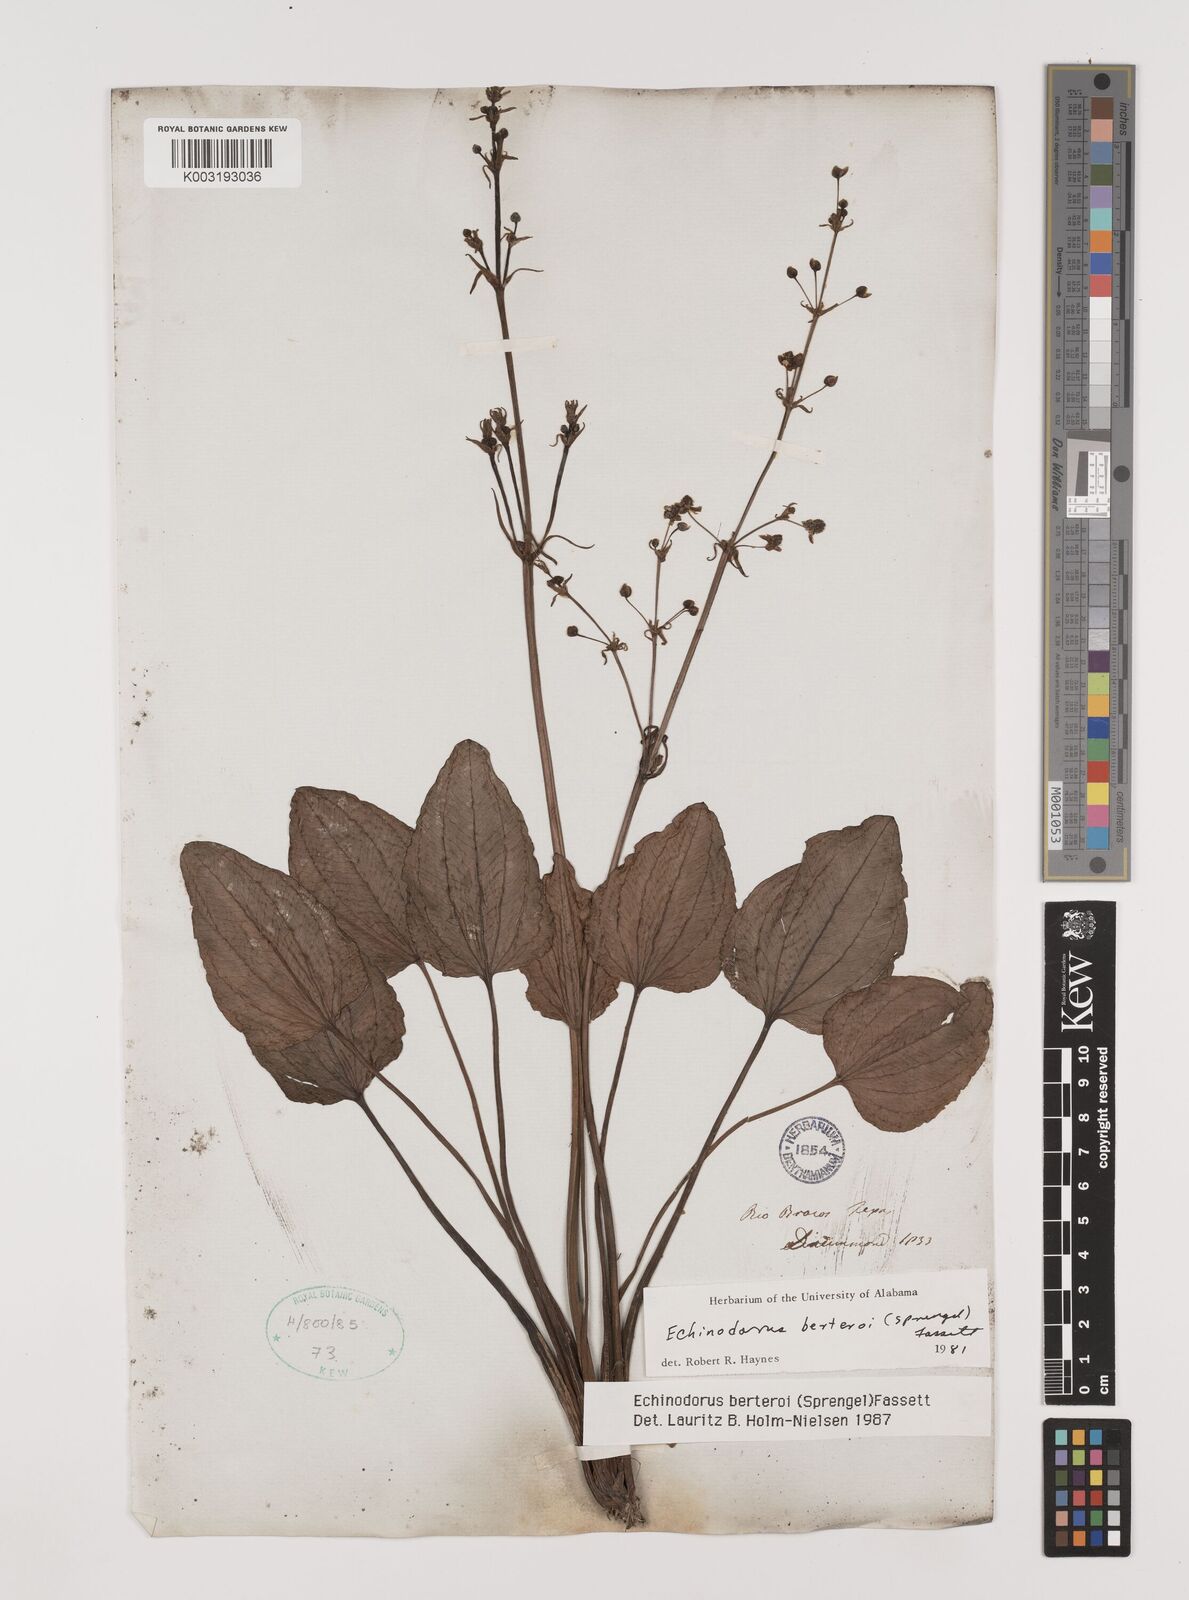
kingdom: Plantae
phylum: Tracheophyta
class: Liliopsida
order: Alismatales
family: Alismataceae
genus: Echinodorus
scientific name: Echinodorus berteroi
